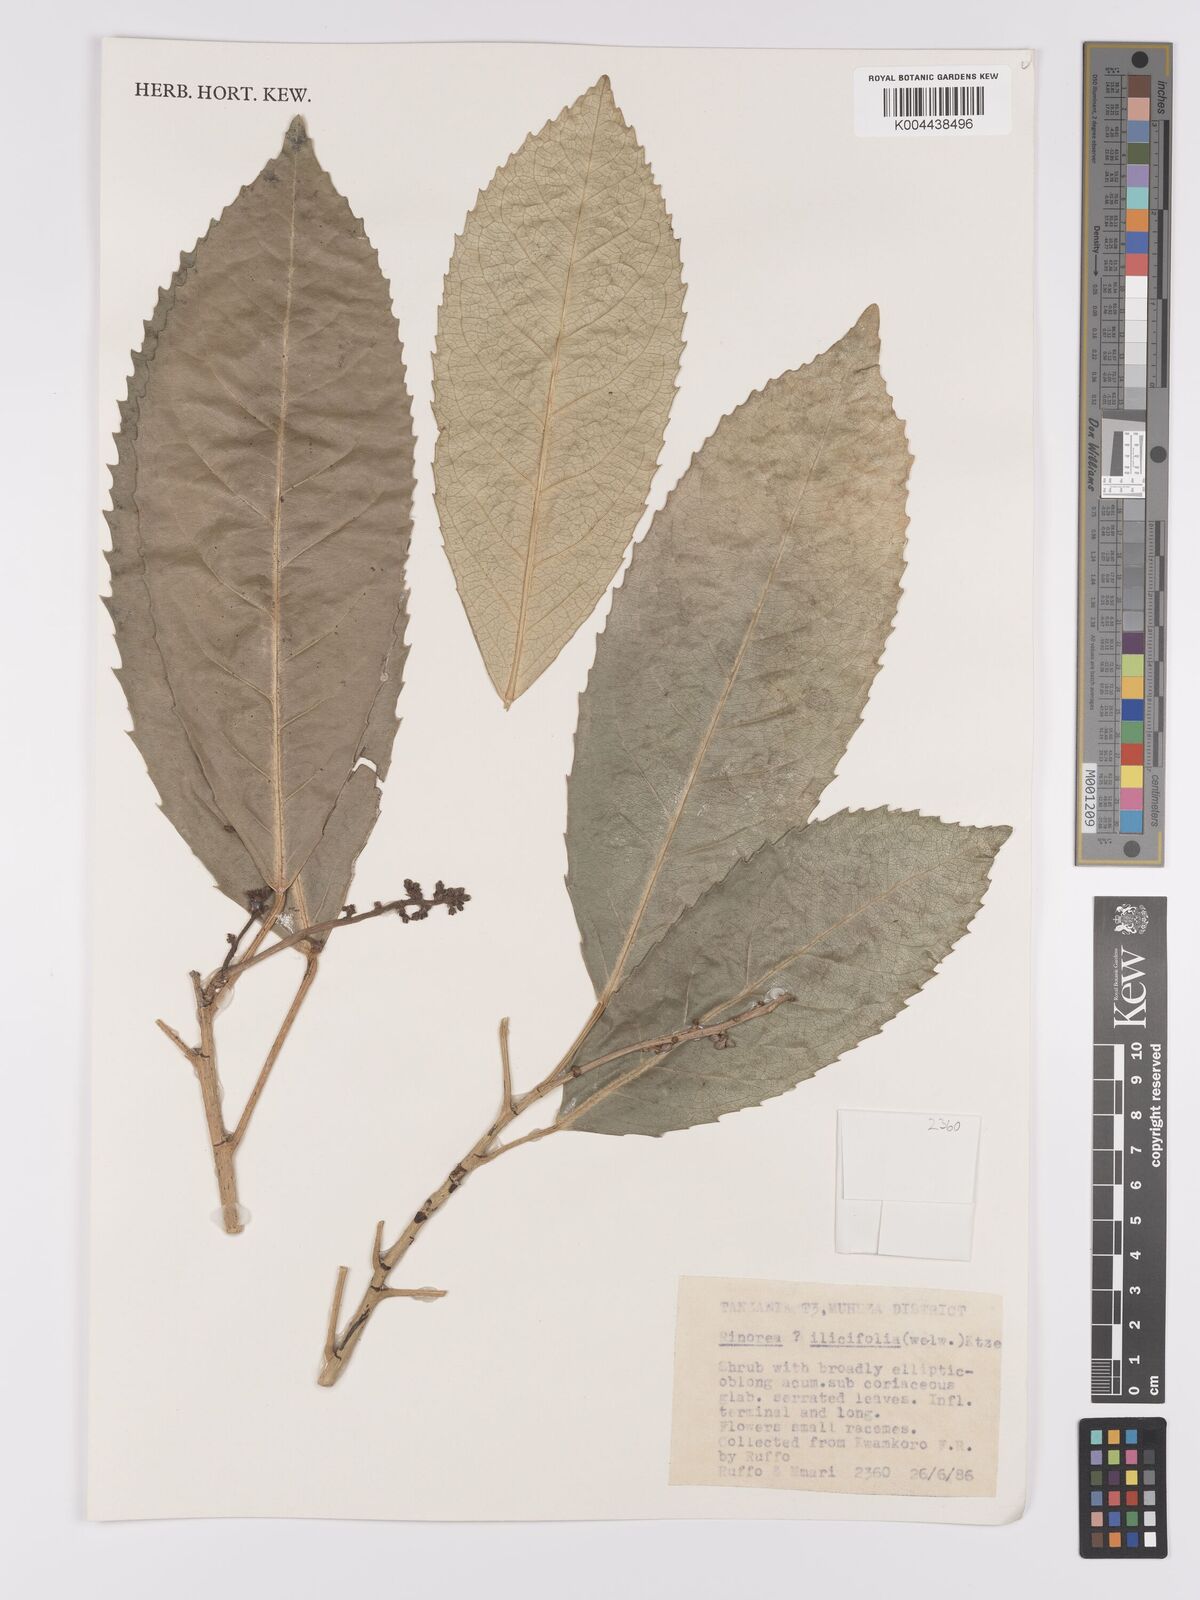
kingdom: Plantae
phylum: Tracheophyta
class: Magnoliopsida
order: Malpighiales
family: Violaceae
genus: Rinorea
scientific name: Rinorea ilicifolia
